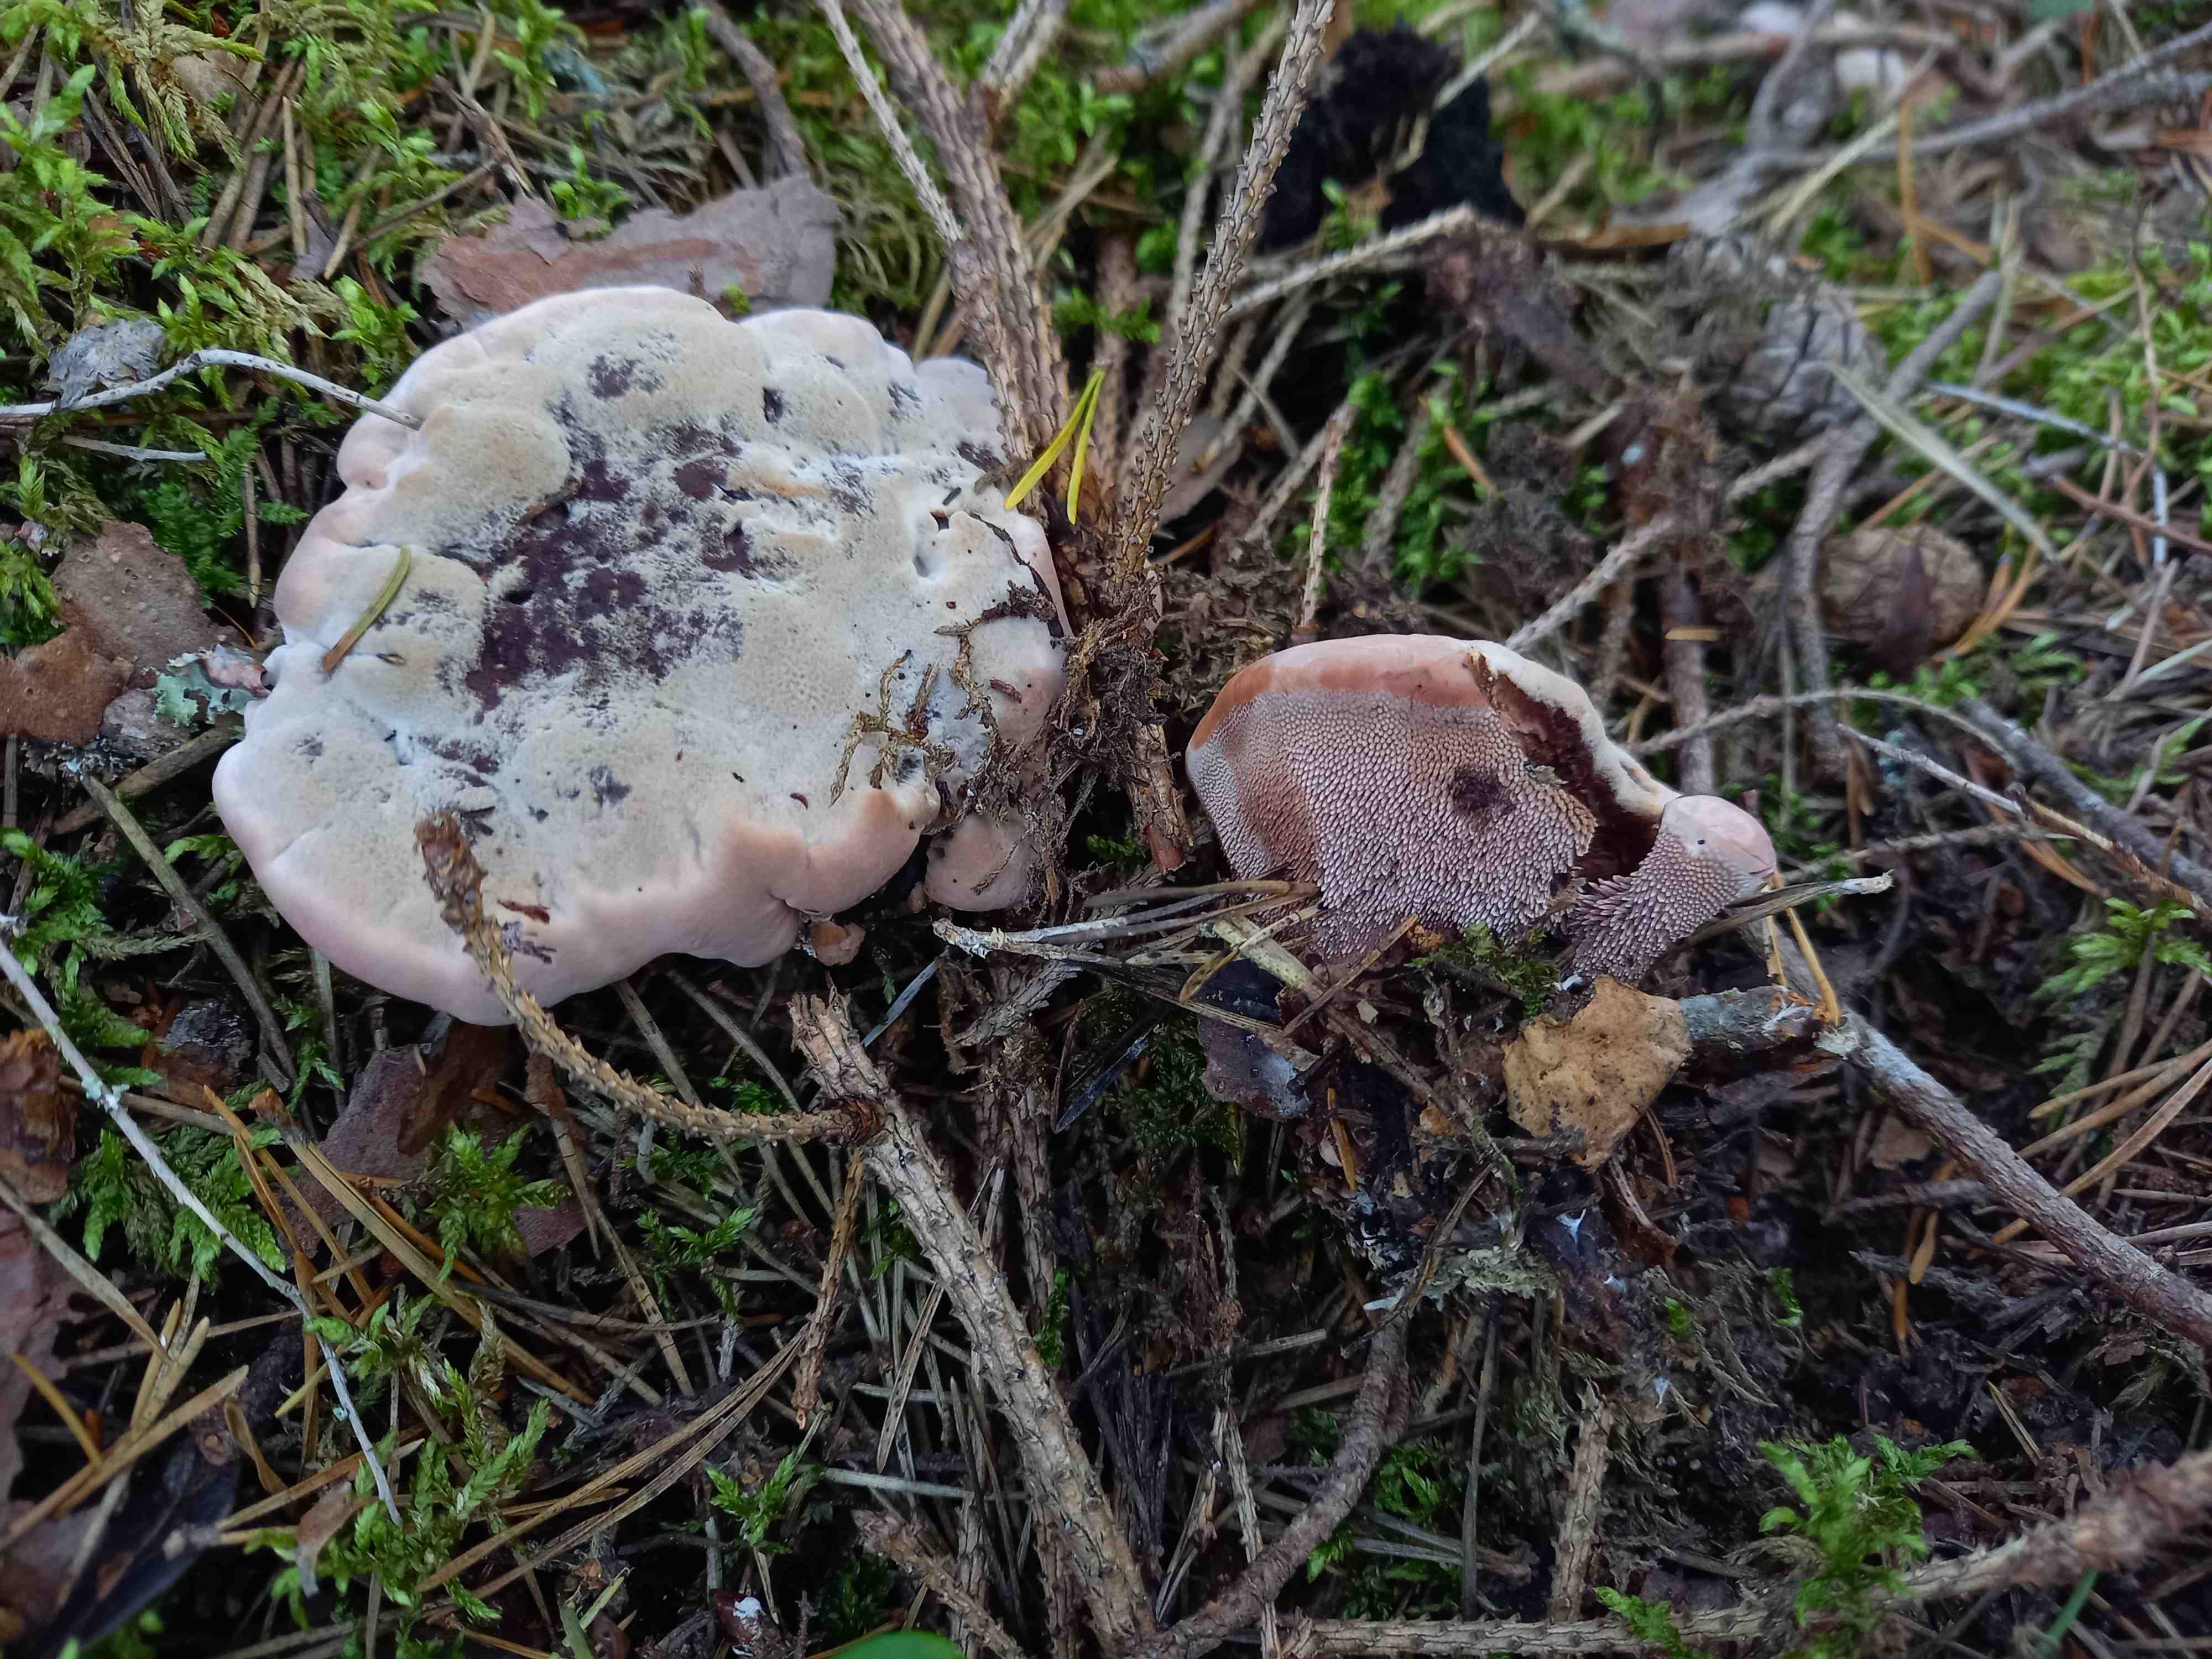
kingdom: Fungi
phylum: Basidiomycota
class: Agaricomycetes
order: Thelephorales
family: Bankeraceae
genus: Hydnellum
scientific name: Hydnellum
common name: korkpigsvamp
